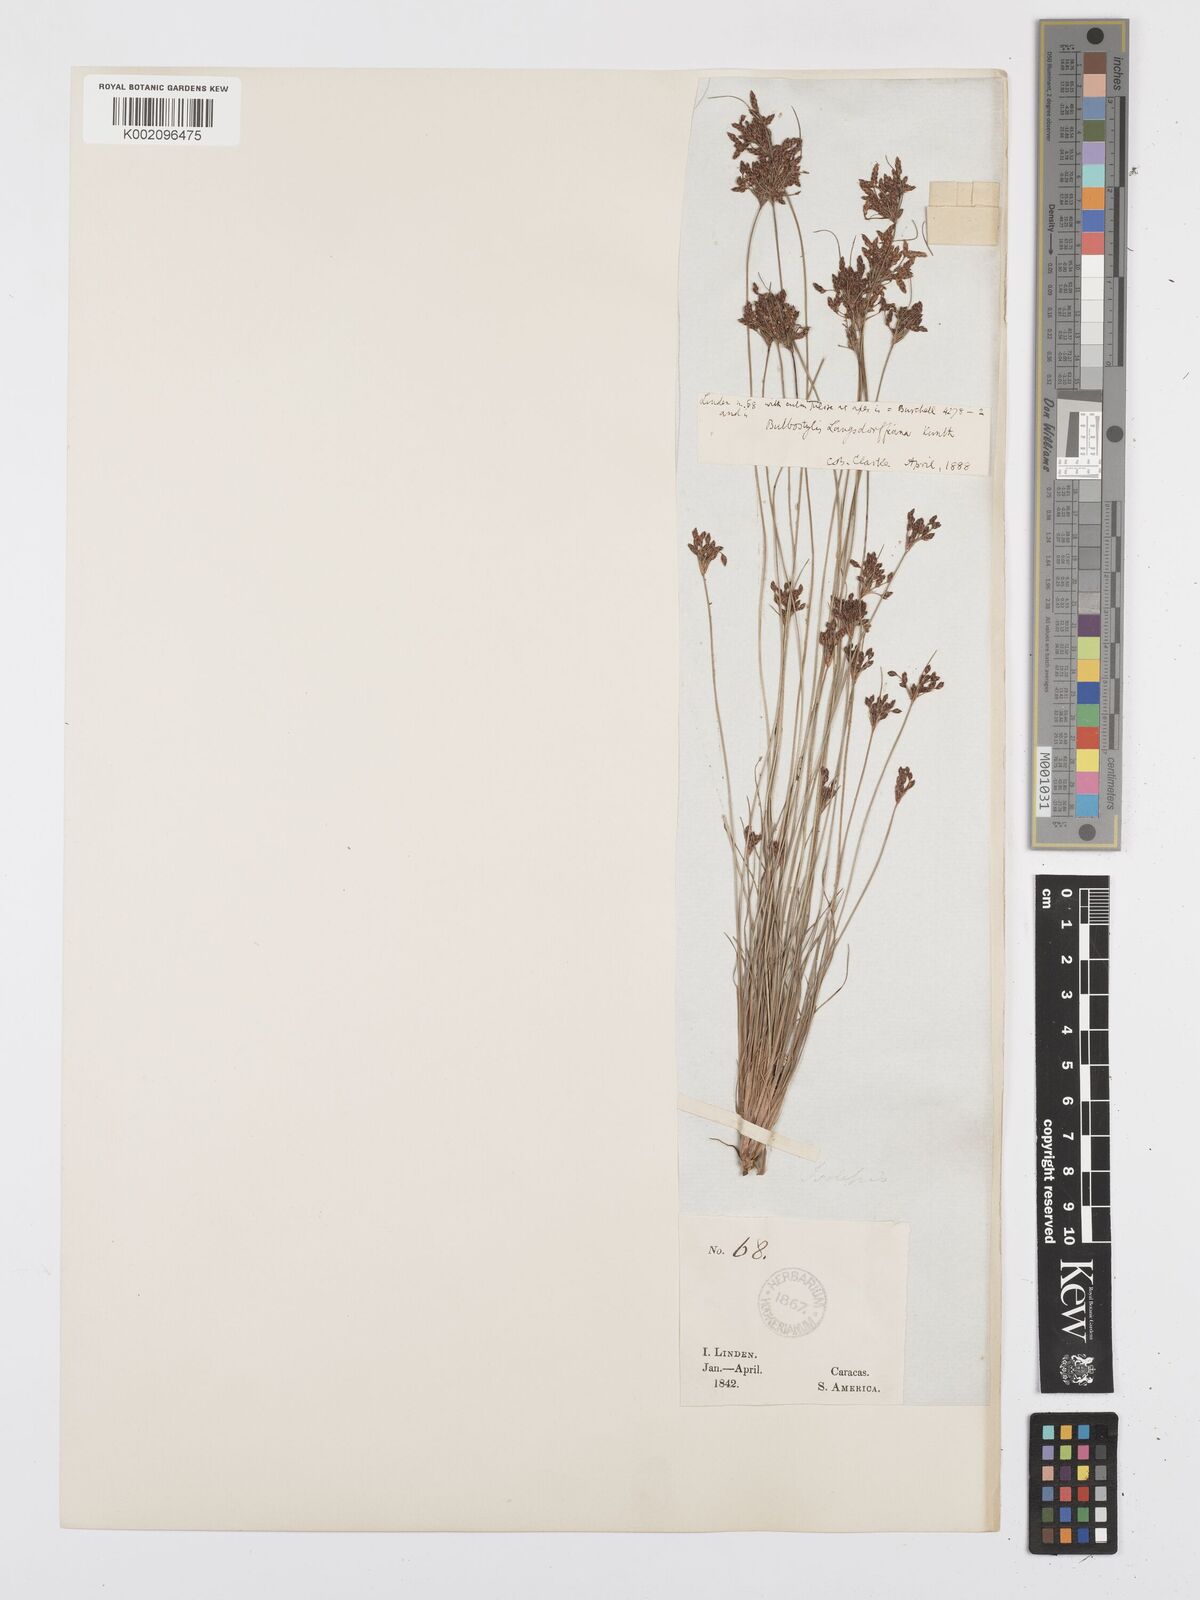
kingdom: Plantae
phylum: Tracheophyta
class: Liliopsida
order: Poales
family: Cyperaceae
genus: Bulbostylis
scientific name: Bulbostylis juncoides
